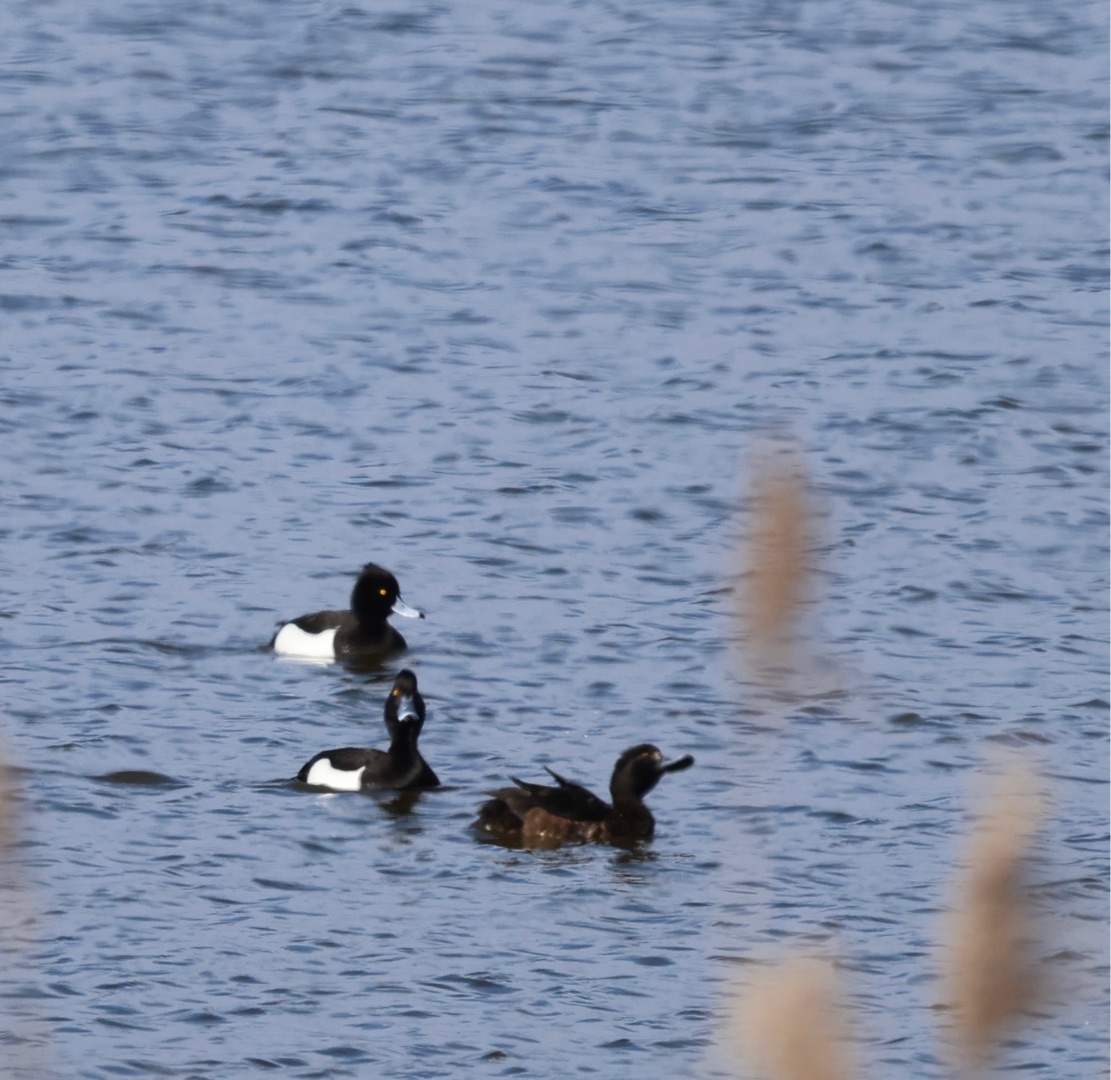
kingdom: Animalia
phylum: Chordata
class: Aves
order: Anseriformes
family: Anatidae
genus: Aythya
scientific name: Aythya fuligula
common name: Troldand
